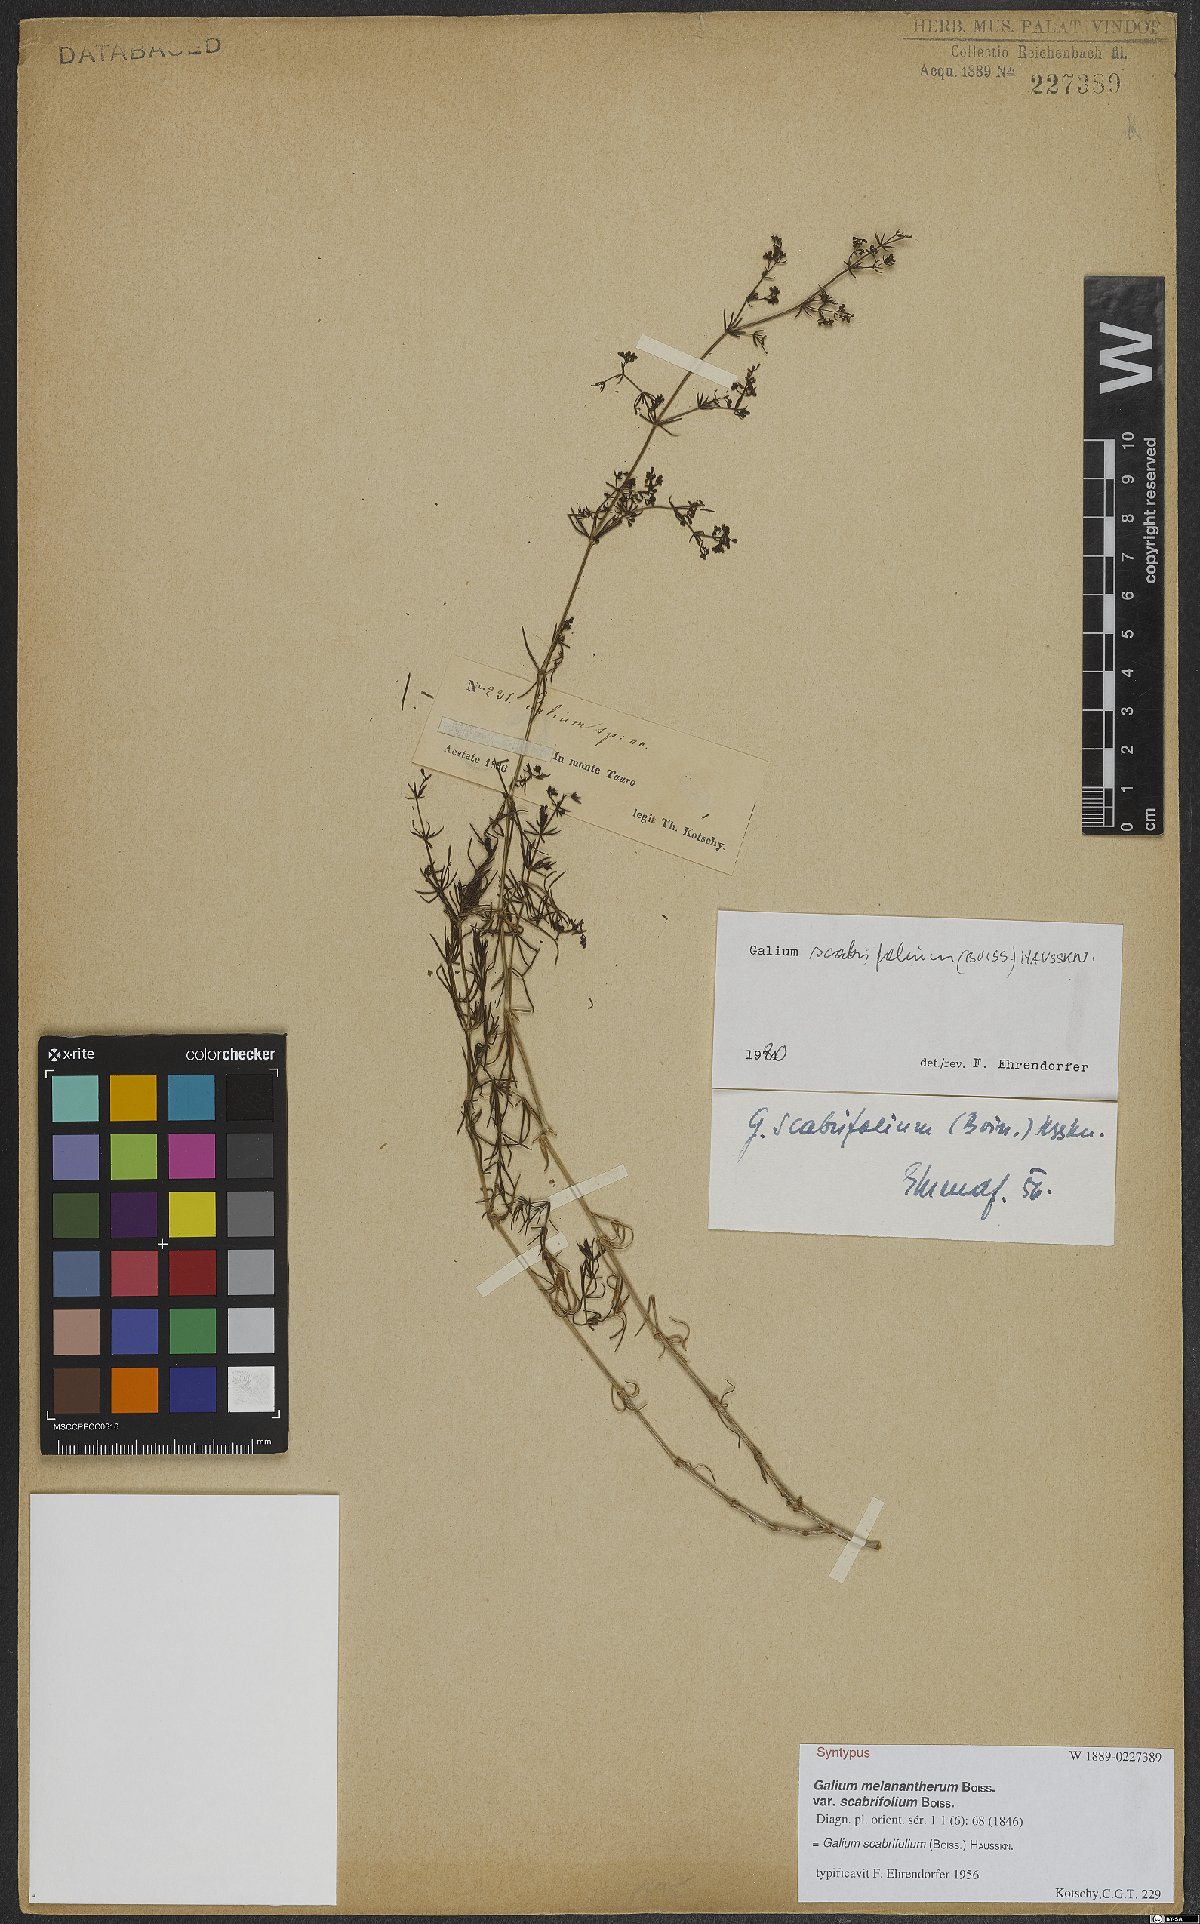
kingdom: Plantae
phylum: Tracheophyta
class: Magnoliopsida
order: Gentianales
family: Rubiaceae
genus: Galium
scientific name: Galium scabrifolium
